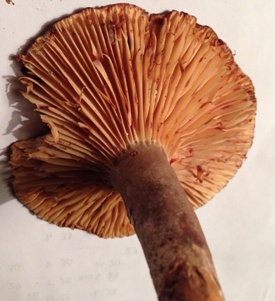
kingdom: Fungi
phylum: Basidiomycota
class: Agaricomycetes
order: Russulales
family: Russulaceae
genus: Lactarius
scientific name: Lactarius romagnesii
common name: fjernbladet mælkehat
